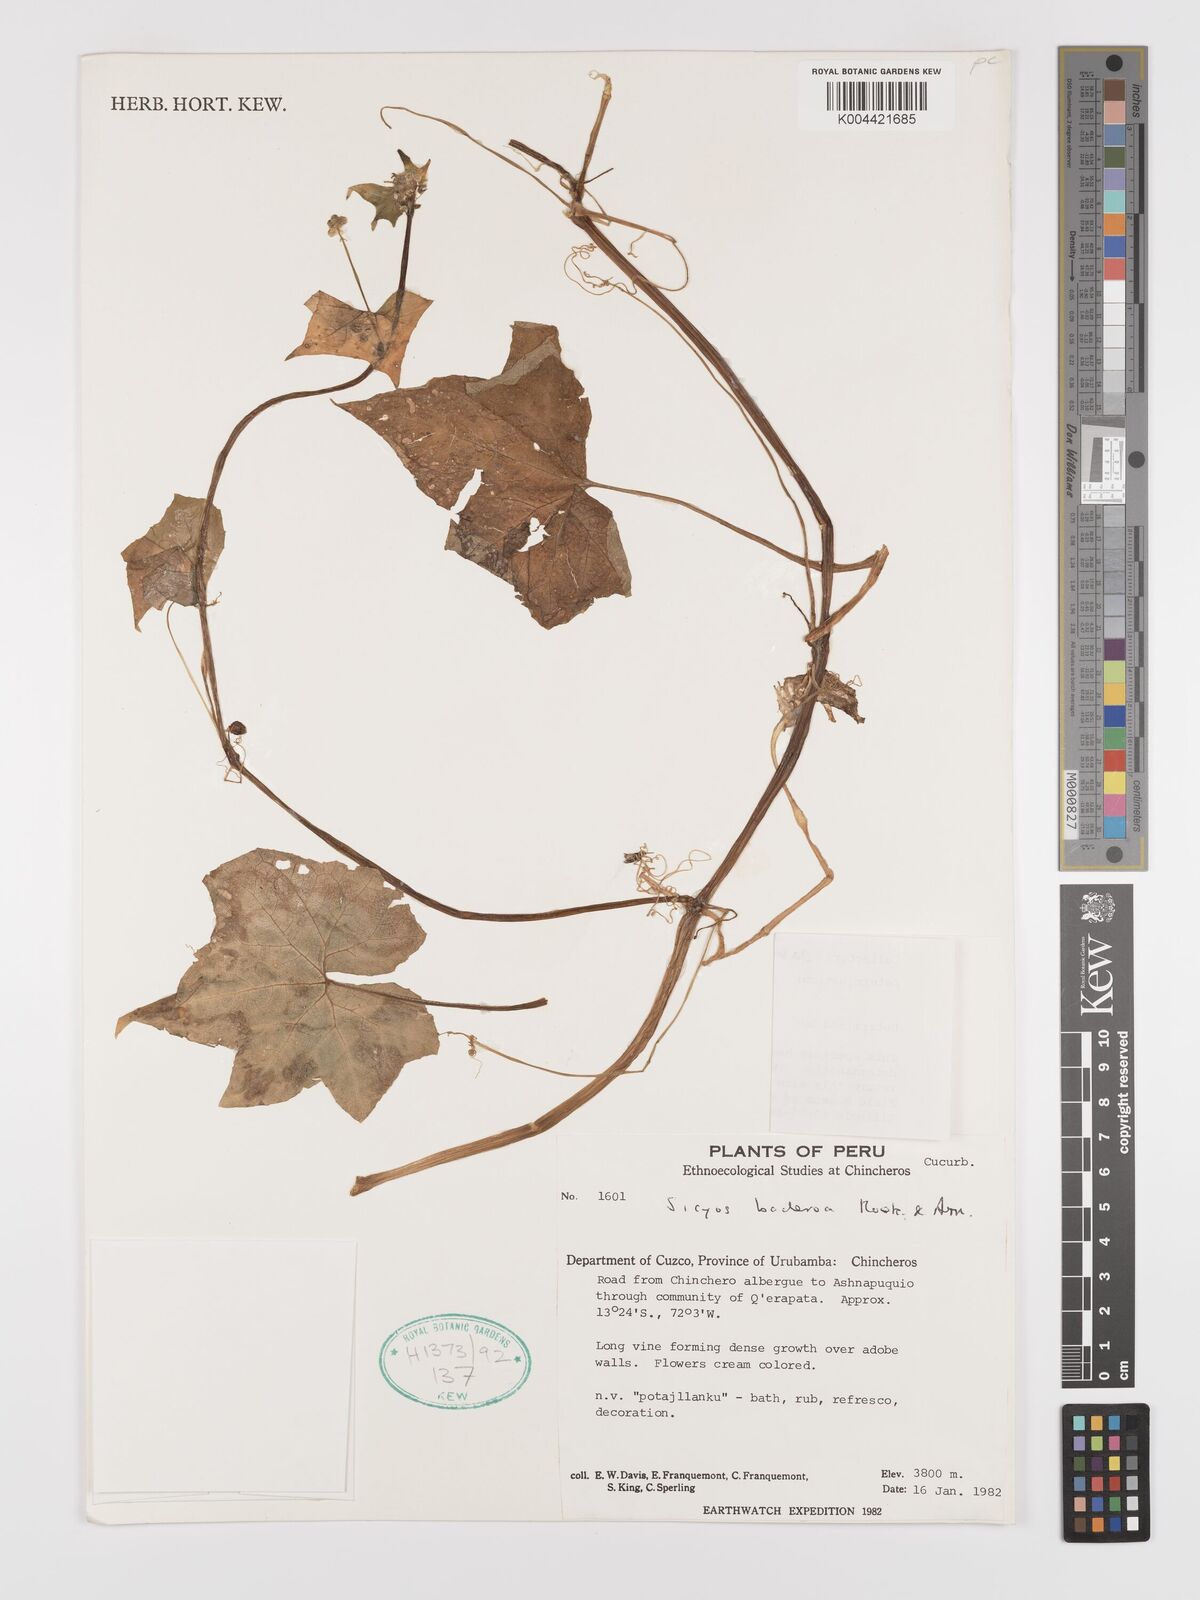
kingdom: Plantae
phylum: Tracheophyta
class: Magnoliopsida
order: Cucurbitales
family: Cucurbitaceae
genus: Sicyos
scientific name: Sicyos baderoa
